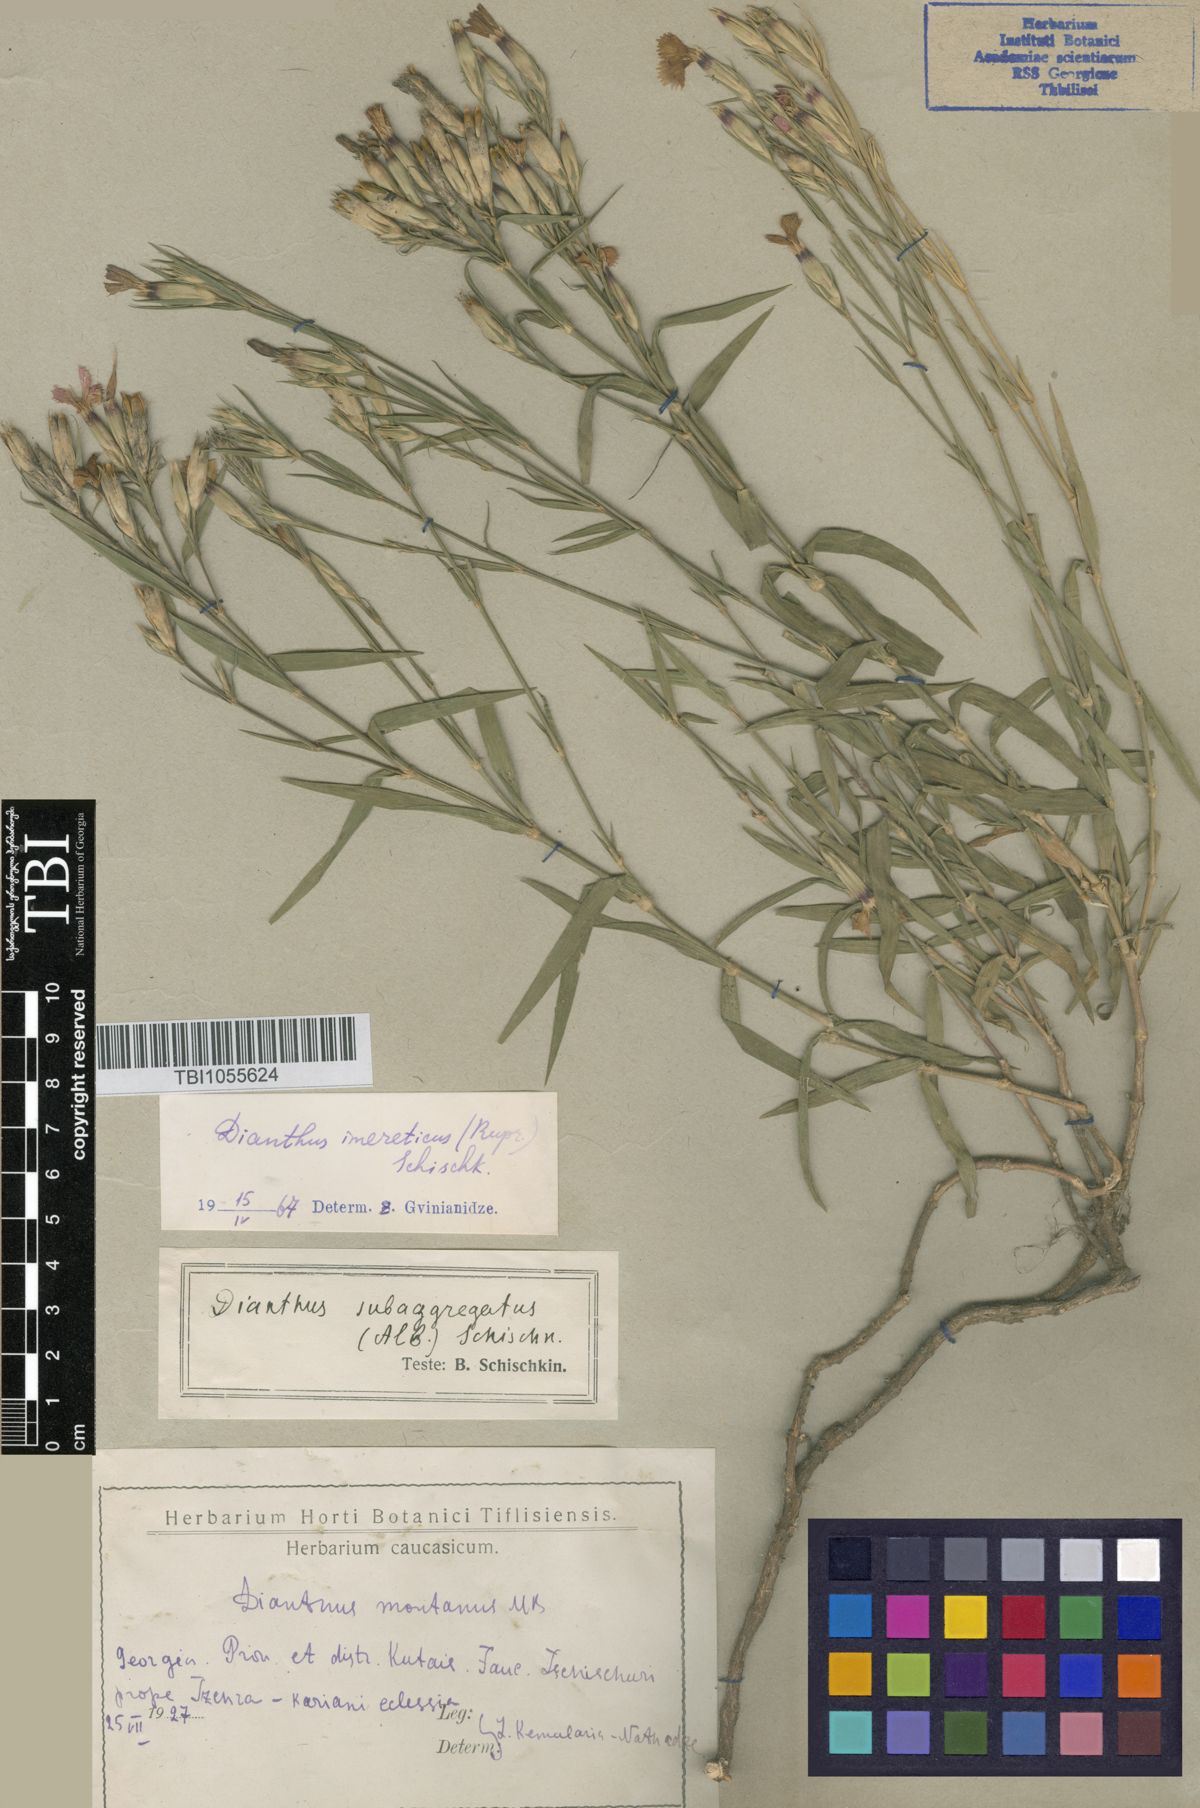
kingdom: Plantae
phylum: Tracheophyta
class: Magnoliopsida
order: Caryophyllales
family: Caryophyllaceae
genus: Dianthus
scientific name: Dianthus imereticus
